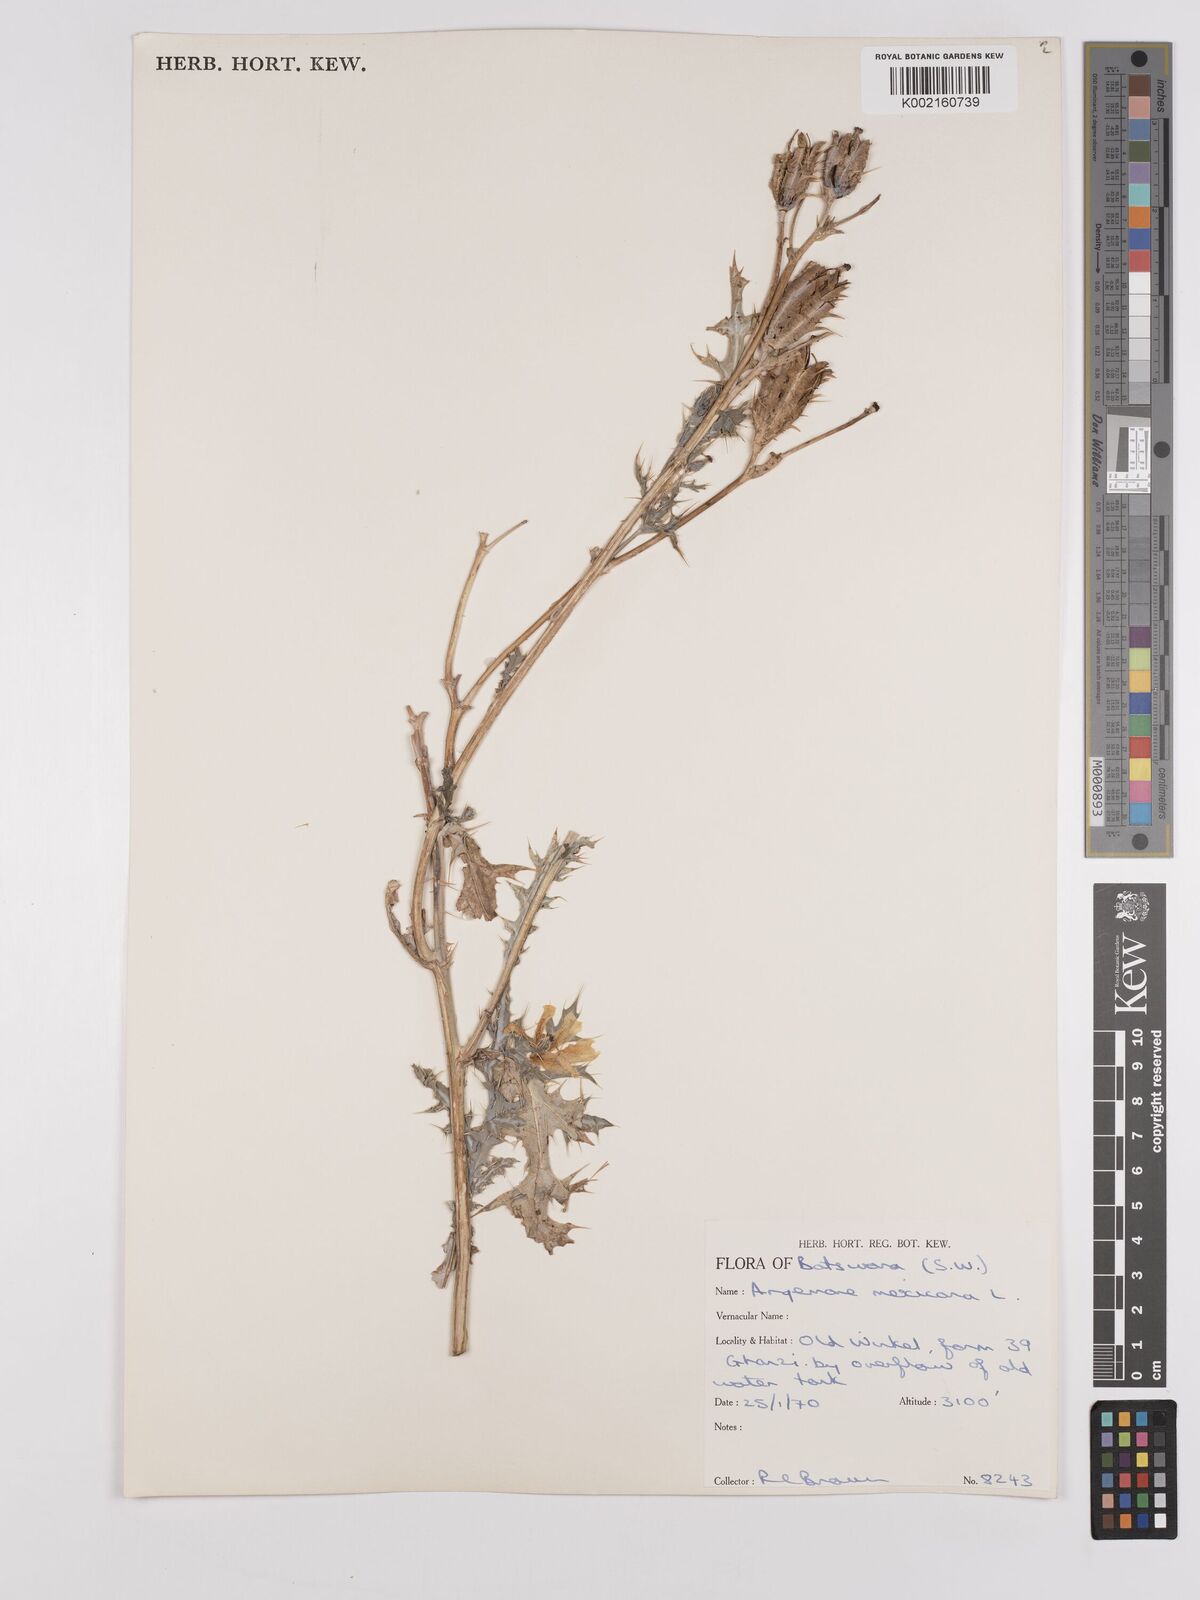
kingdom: Plantae
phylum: Tracheophyta
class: Magnoliopsida
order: Ranunculales
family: Papaveraceae
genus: Argemone
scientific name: Argemone mexicana
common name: Mexican poppy
